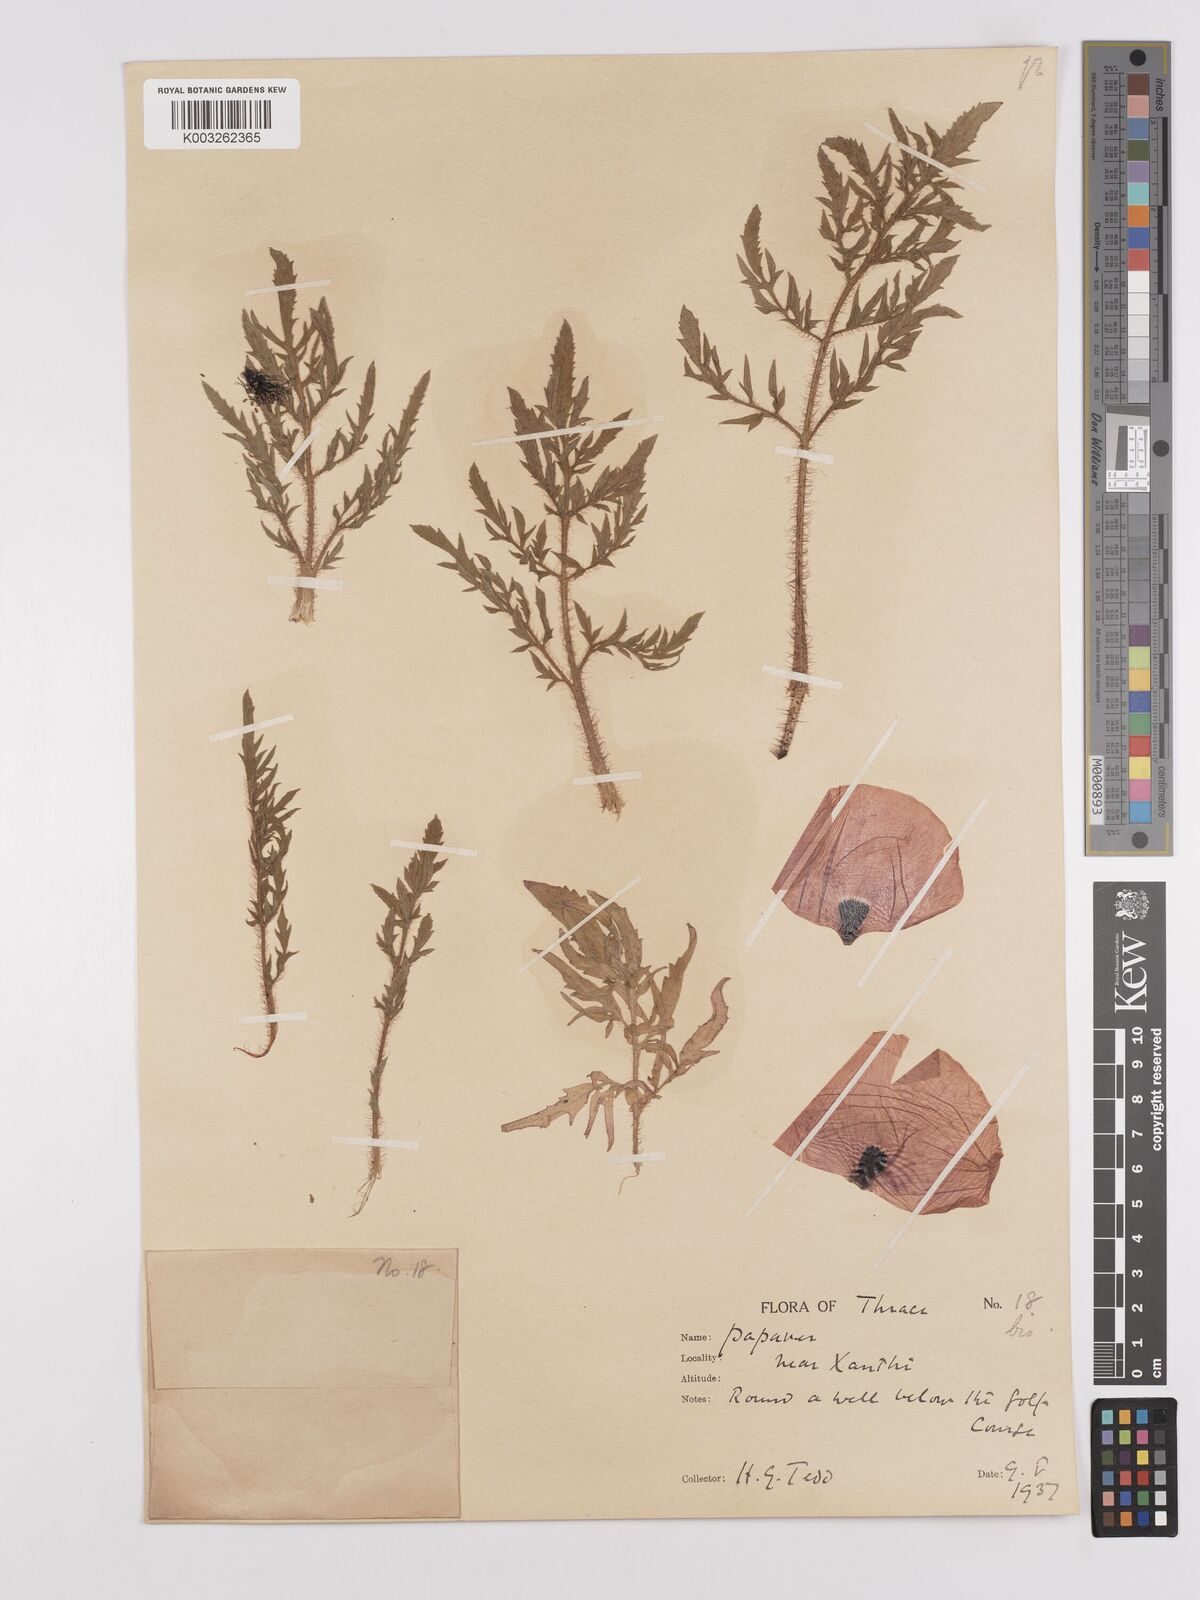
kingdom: Plantae
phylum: Tracheophyta
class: Magnoliopsida
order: Ranunculales
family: Papaveraceae
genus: Papaver
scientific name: Papaver rhoeas
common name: Corn poppy
